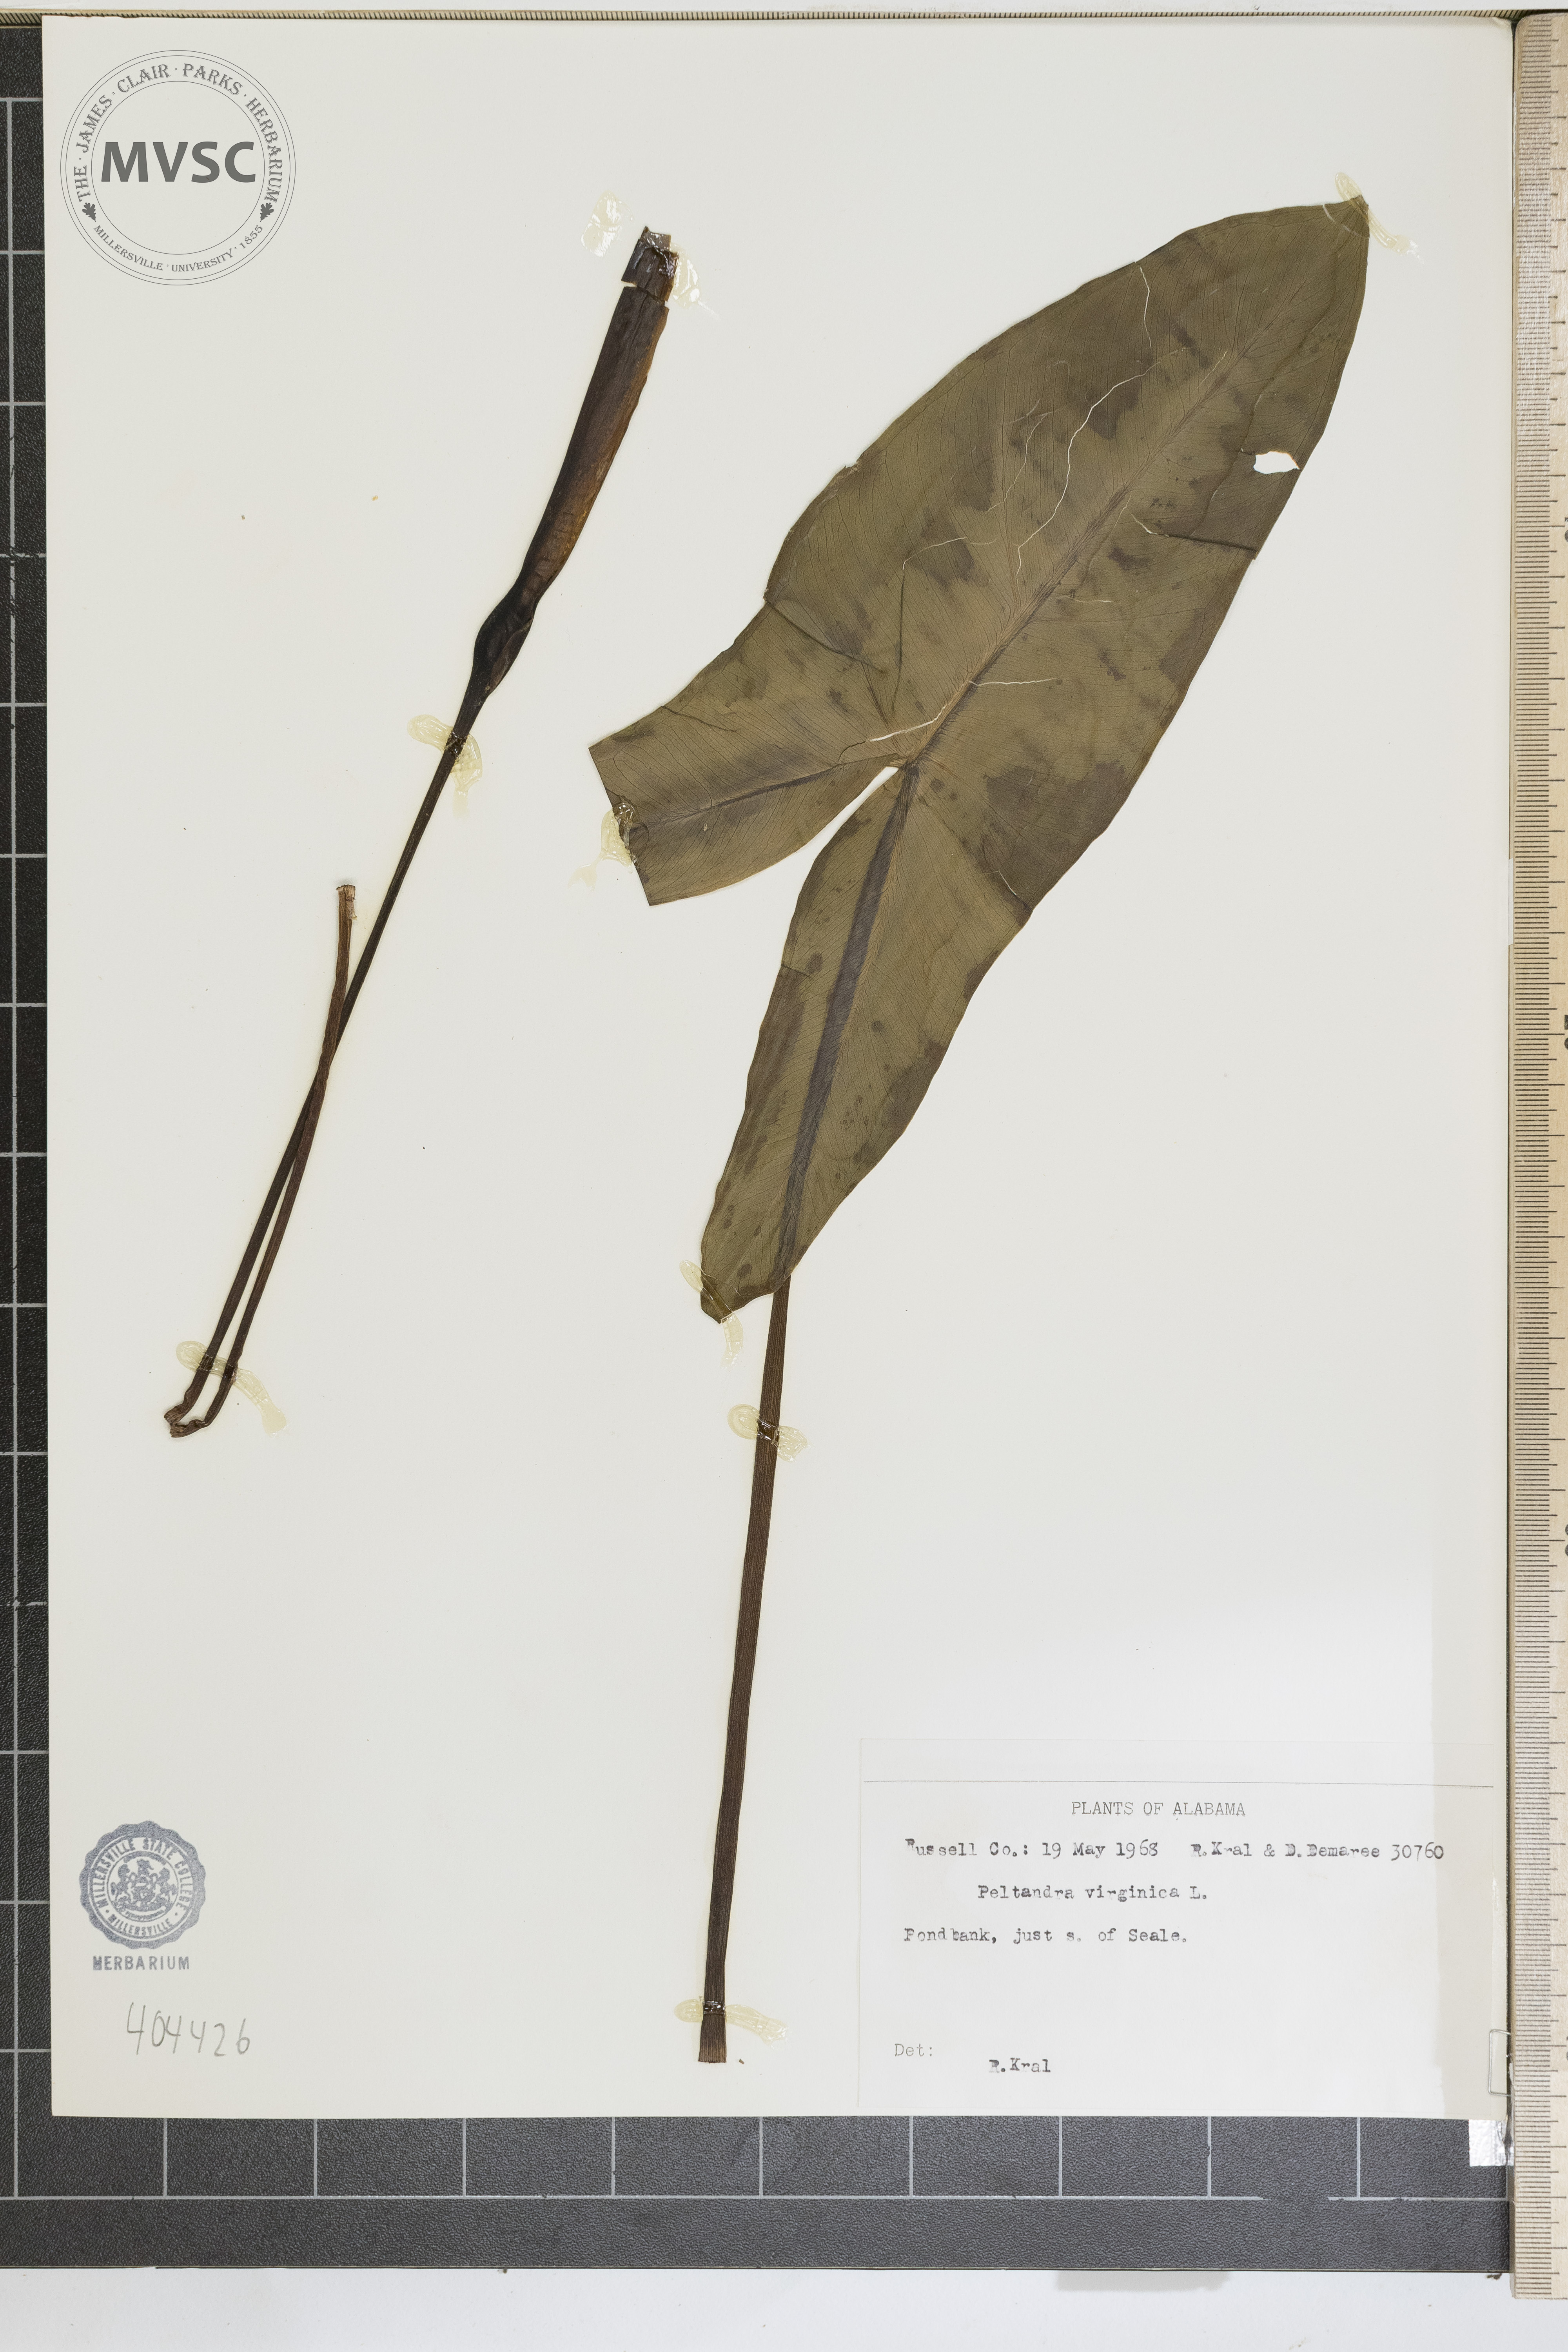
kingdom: Plantae
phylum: Tracheophyta
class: Liliopsida
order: Alismatales
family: Araceae
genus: Peltandra
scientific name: Peltandra virginica
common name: Arrow arum
